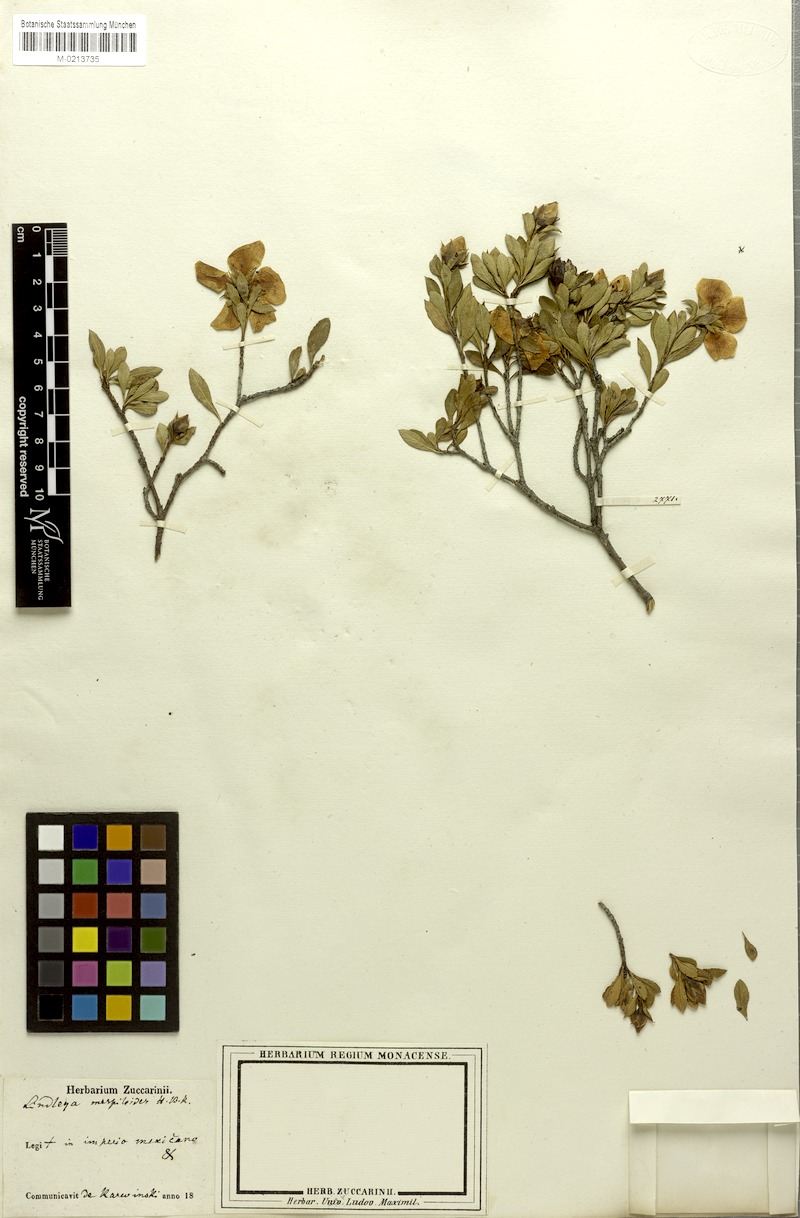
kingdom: Plantae
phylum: Tracheophyta
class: Magnoliopsida
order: Rosales
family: Rosaceae
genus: Lindleya
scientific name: Lindleya mespiloides
